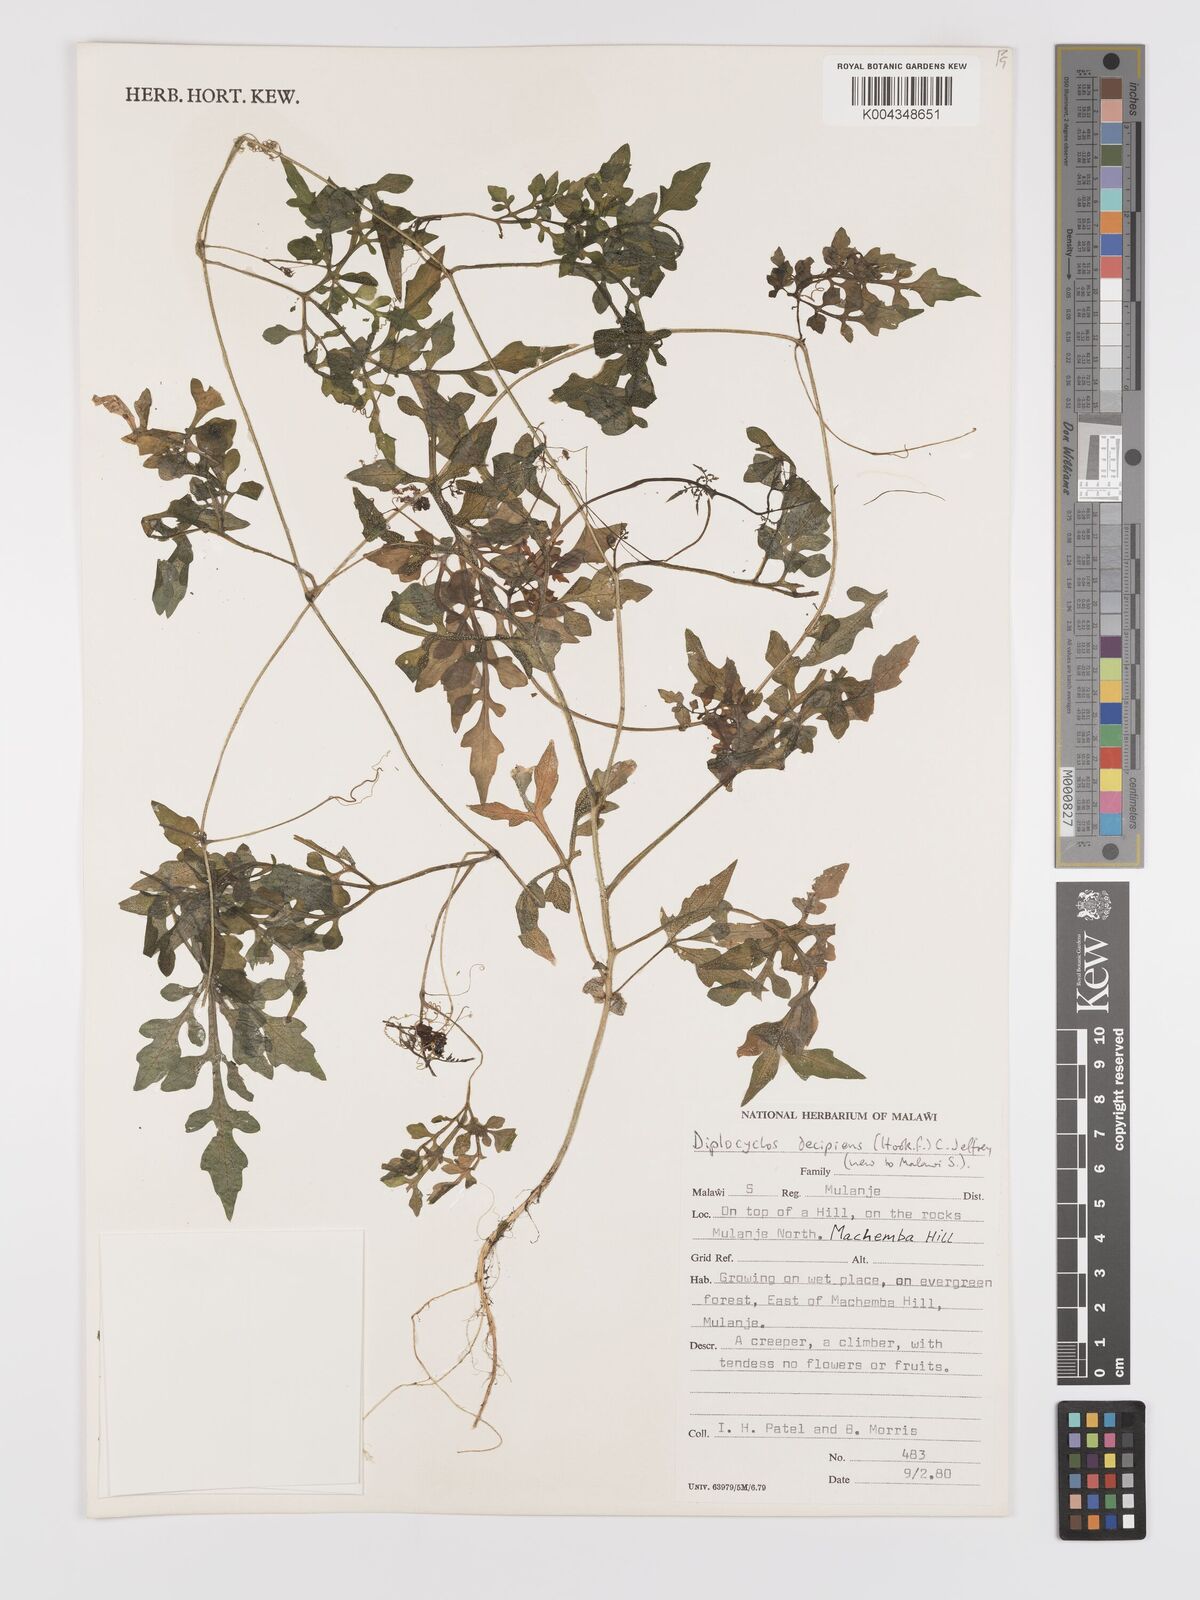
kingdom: Plantae
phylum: Tracheophyta
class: Magnoliopsida
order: Cucurbitales
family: Cucurbitaceae
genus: Diplocyclos
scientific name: Diplocyclos decipiens
